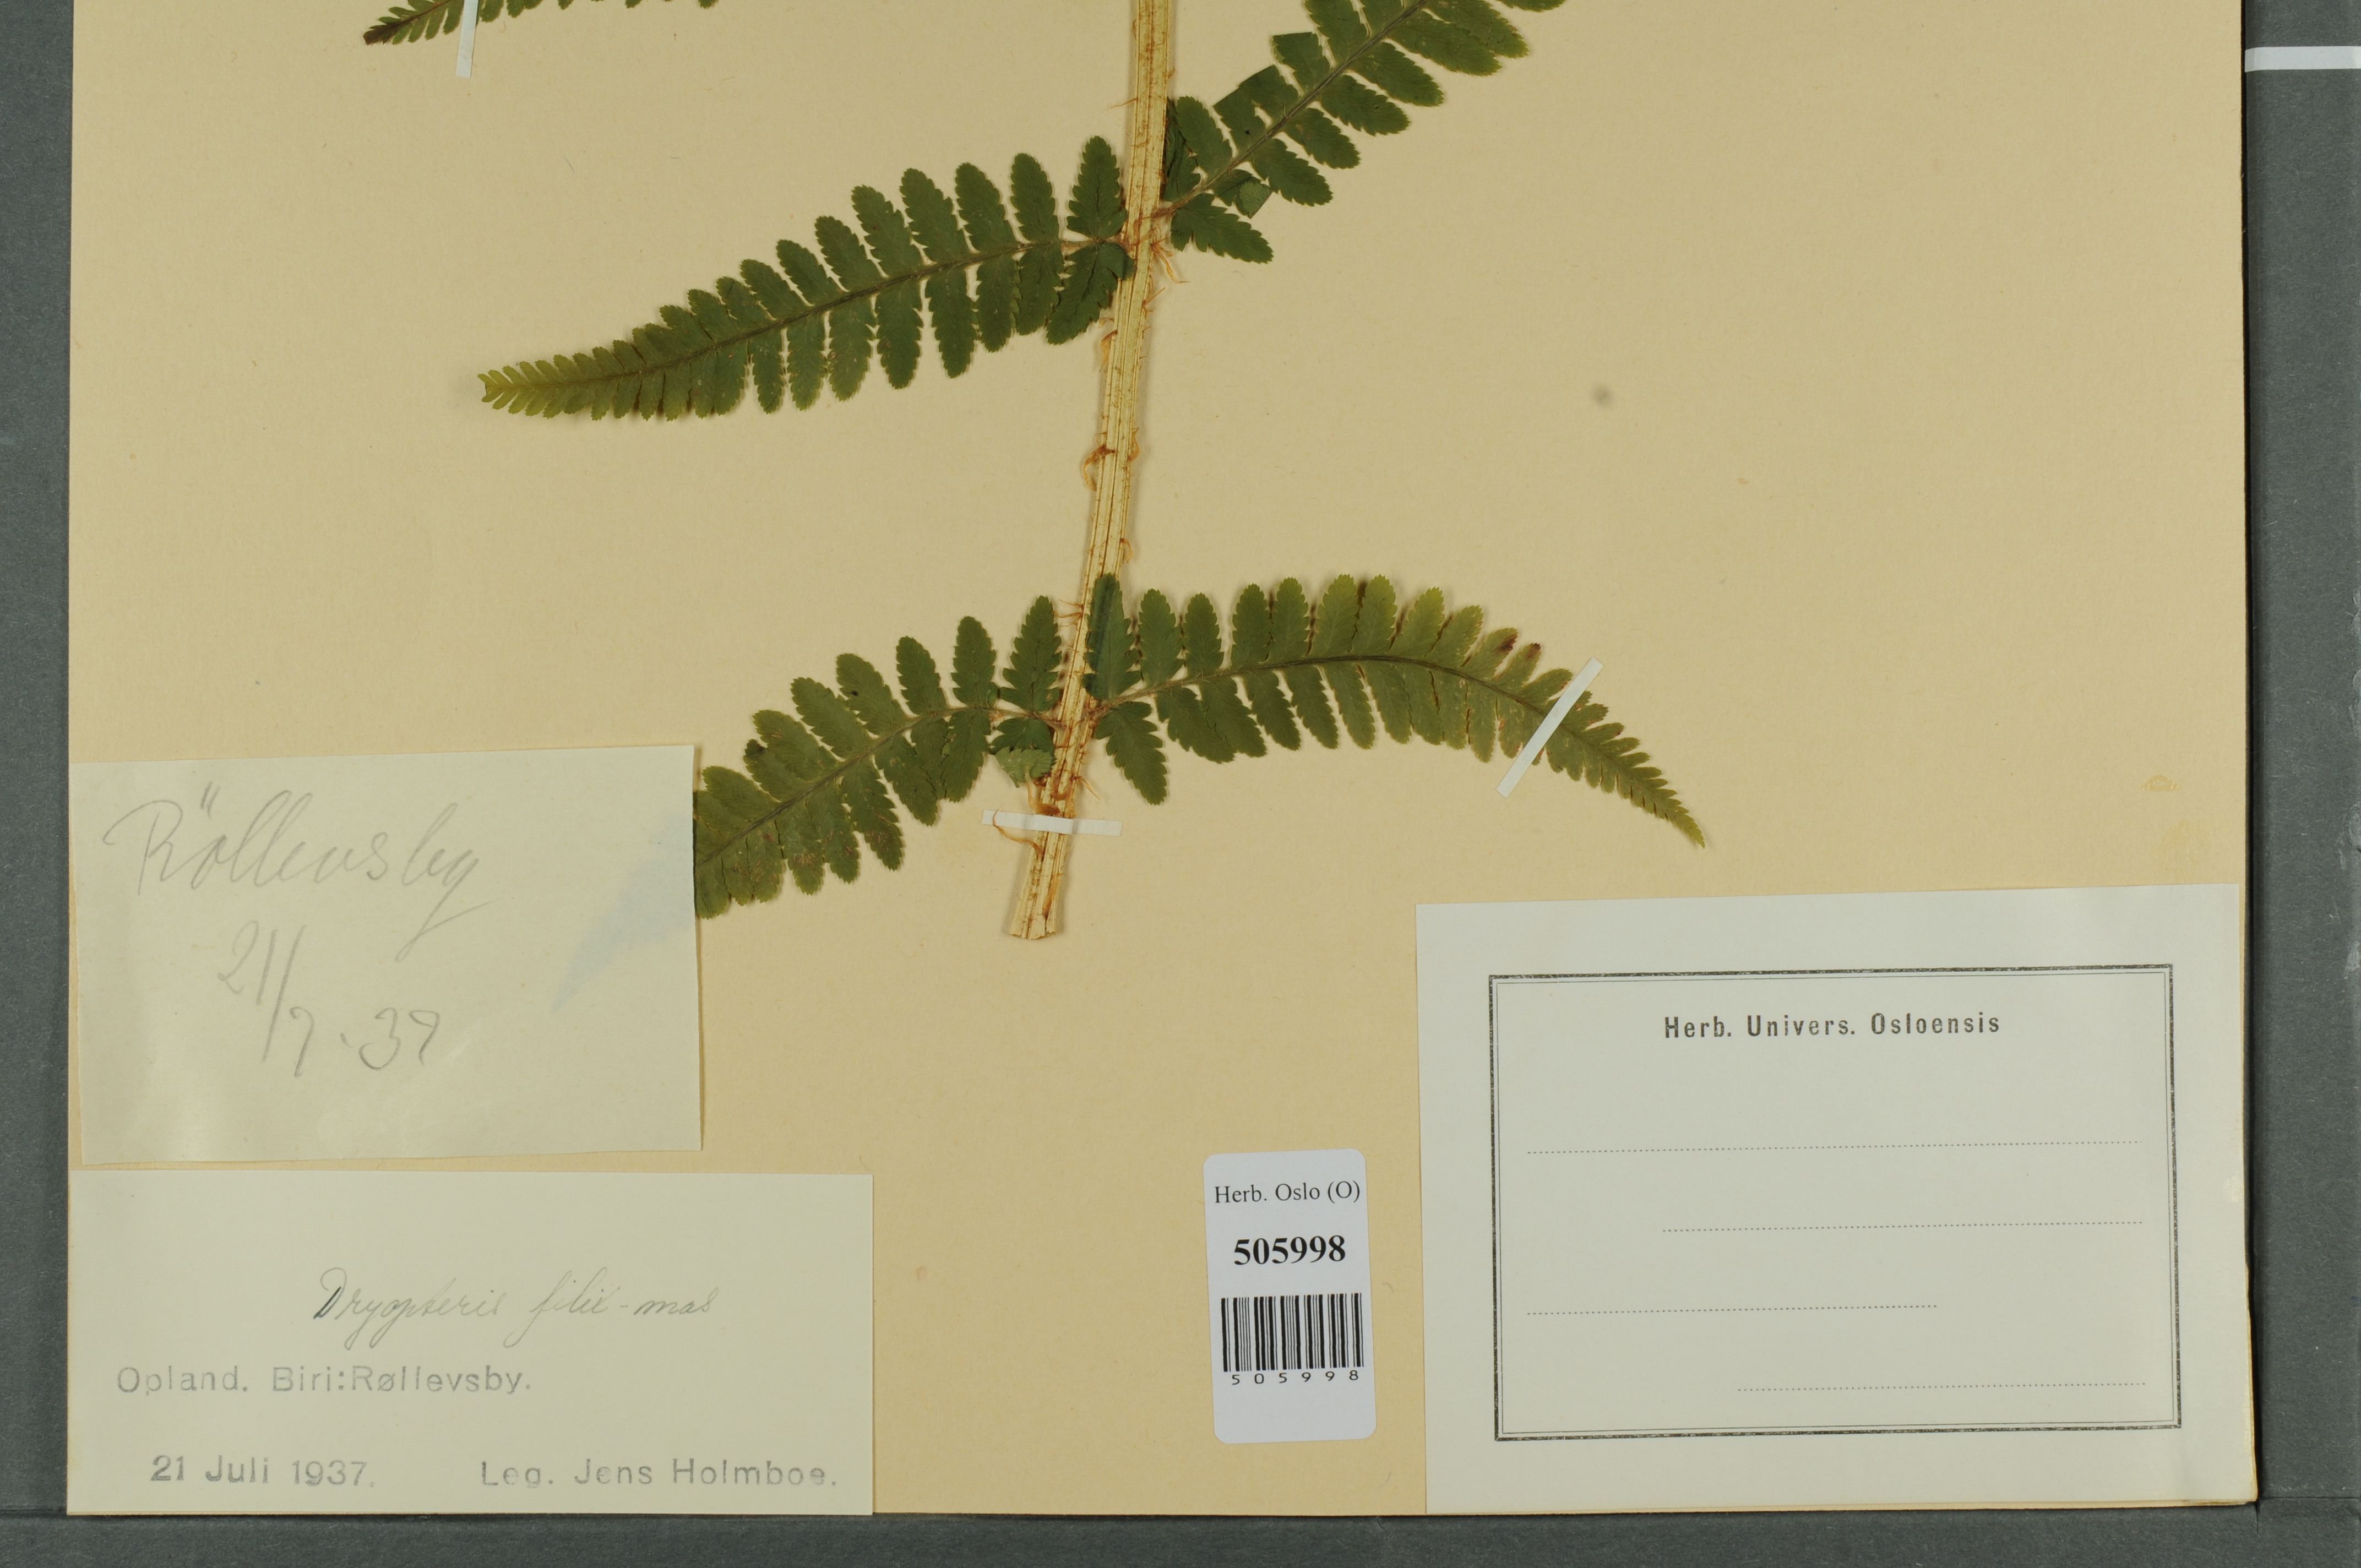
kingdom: Plantae
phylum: Tracheophyta
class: Polypodiopsida
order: Polypodiales
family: Dryopteridaceae
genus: Dryopteris
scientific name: Dryopteris filix-mas
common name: Male fern
